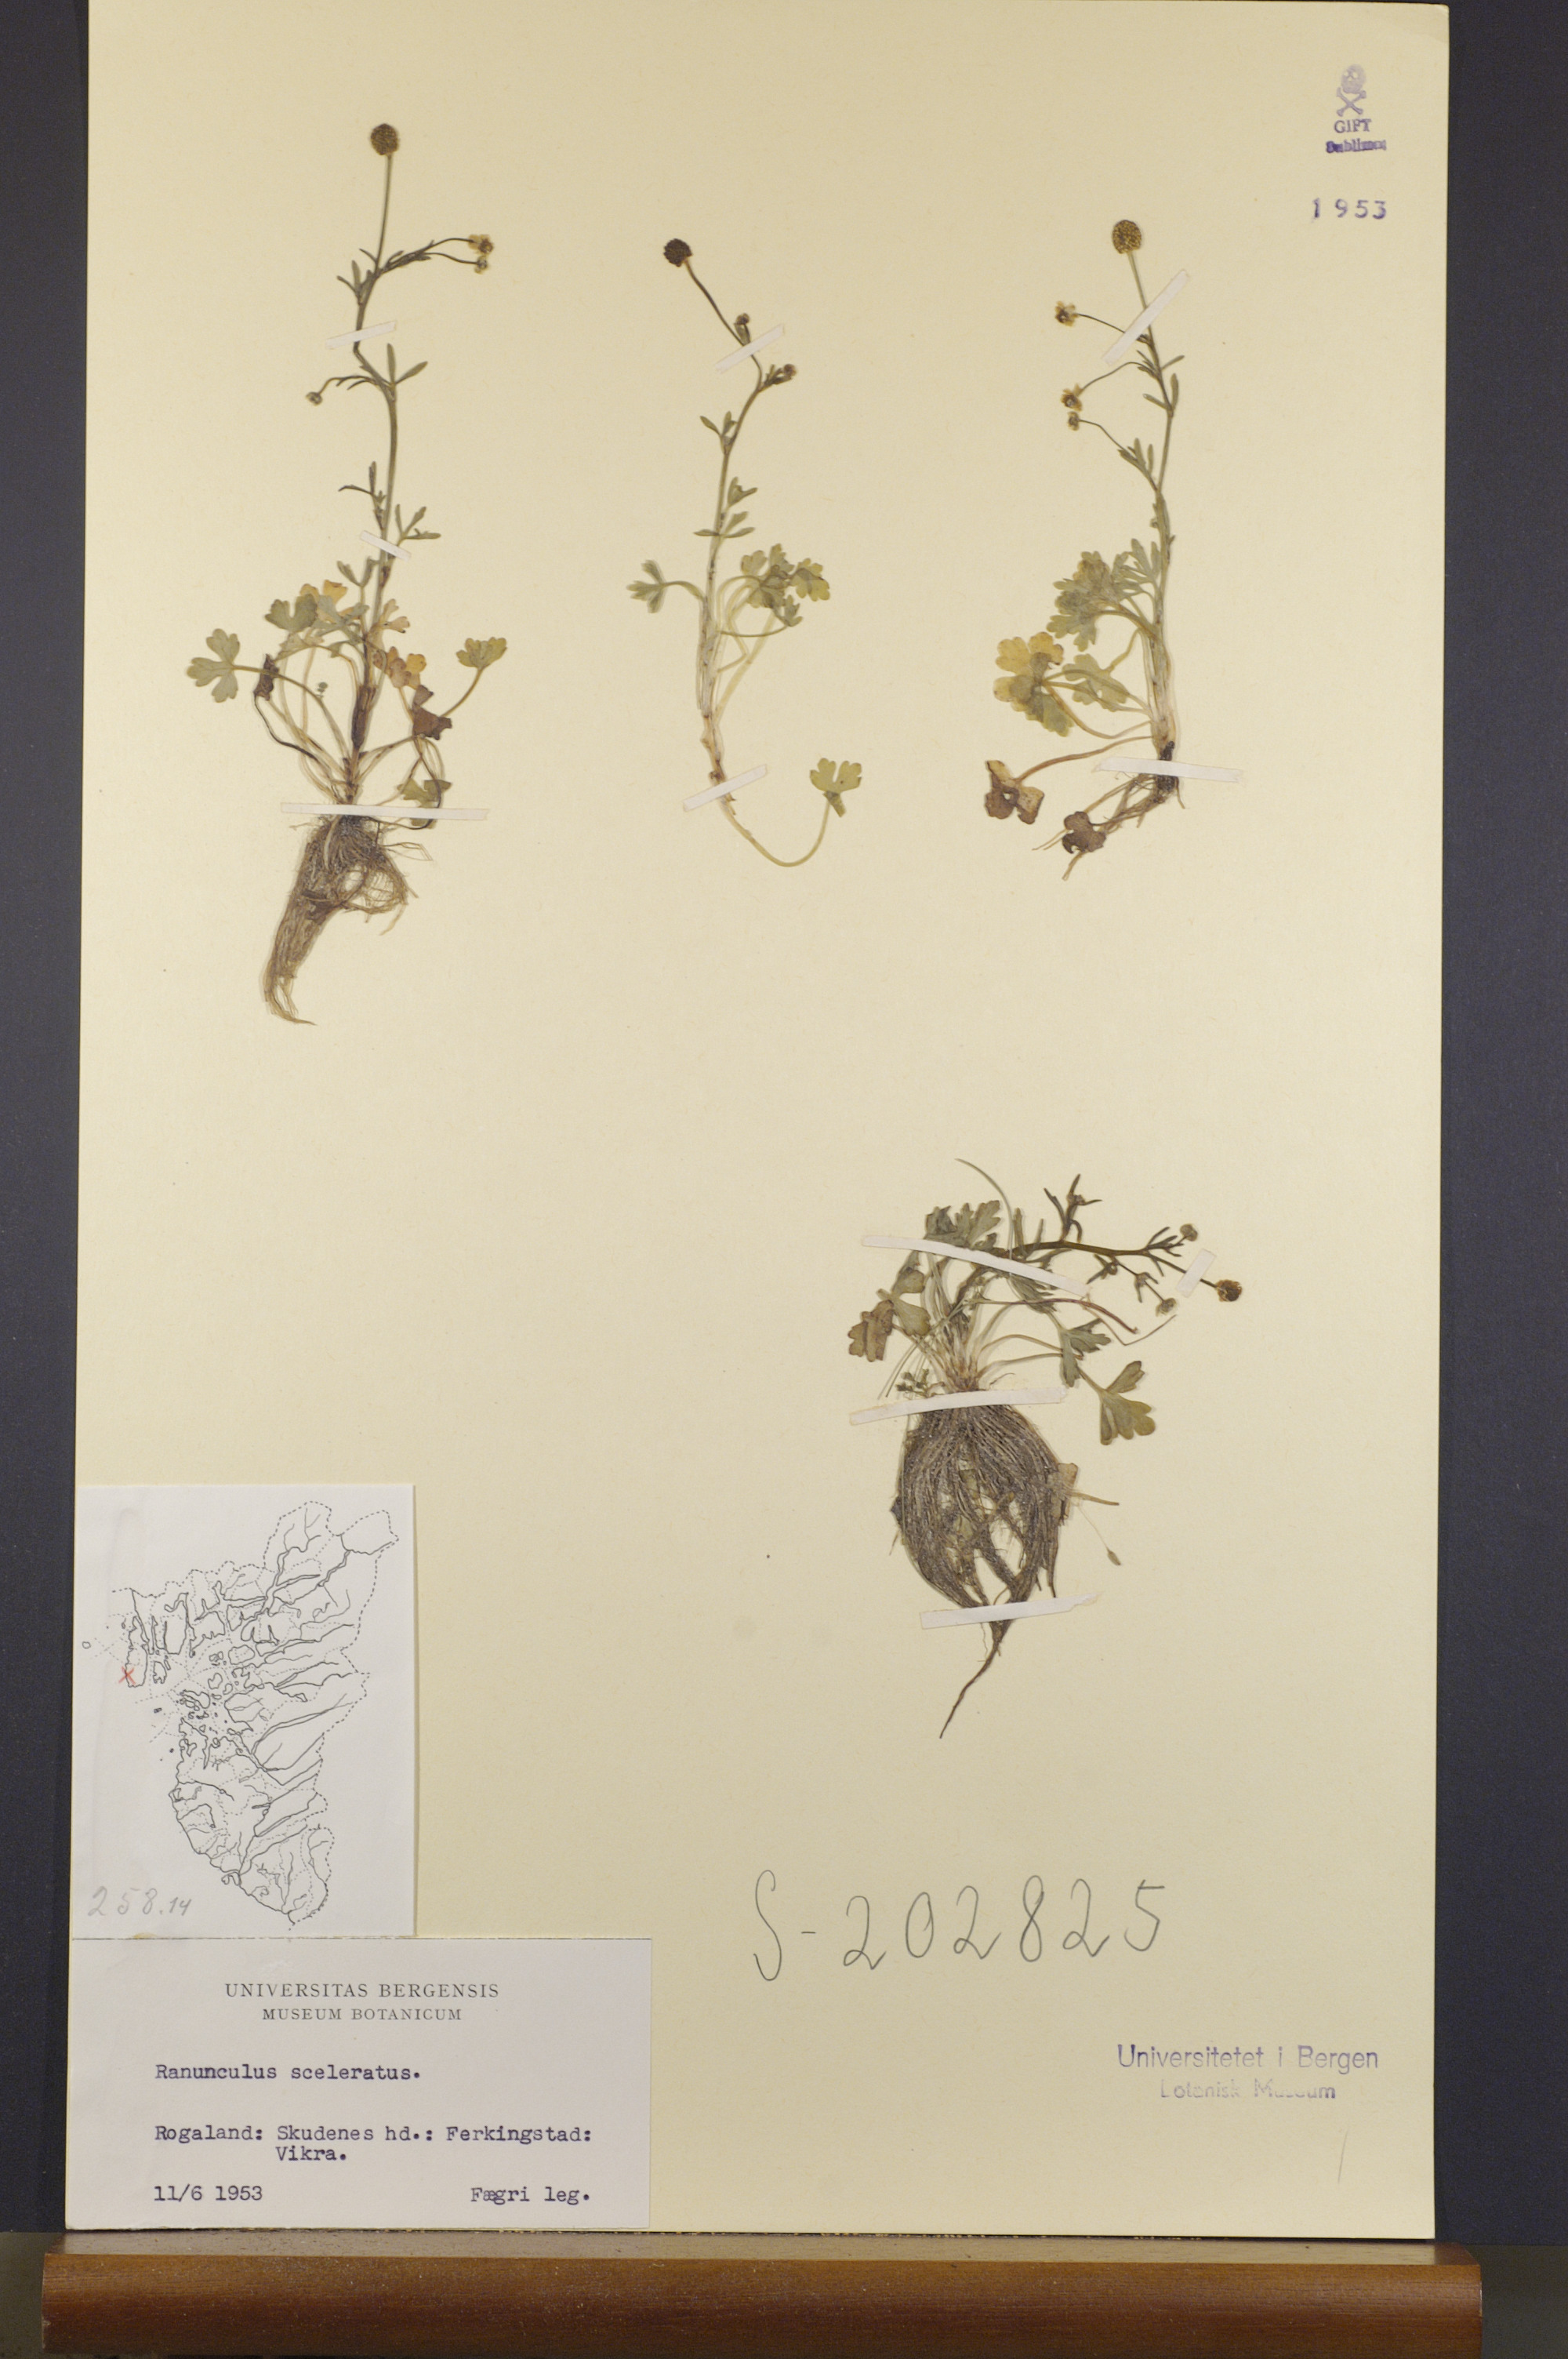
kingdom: Plantae
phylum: Tracheophyta
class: Magnoliopsida
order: Ranunculales
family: Ranunculaceae
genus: Ranunculus
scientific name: Ranunculus sceleratus
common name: Celery-leaved buttercup
